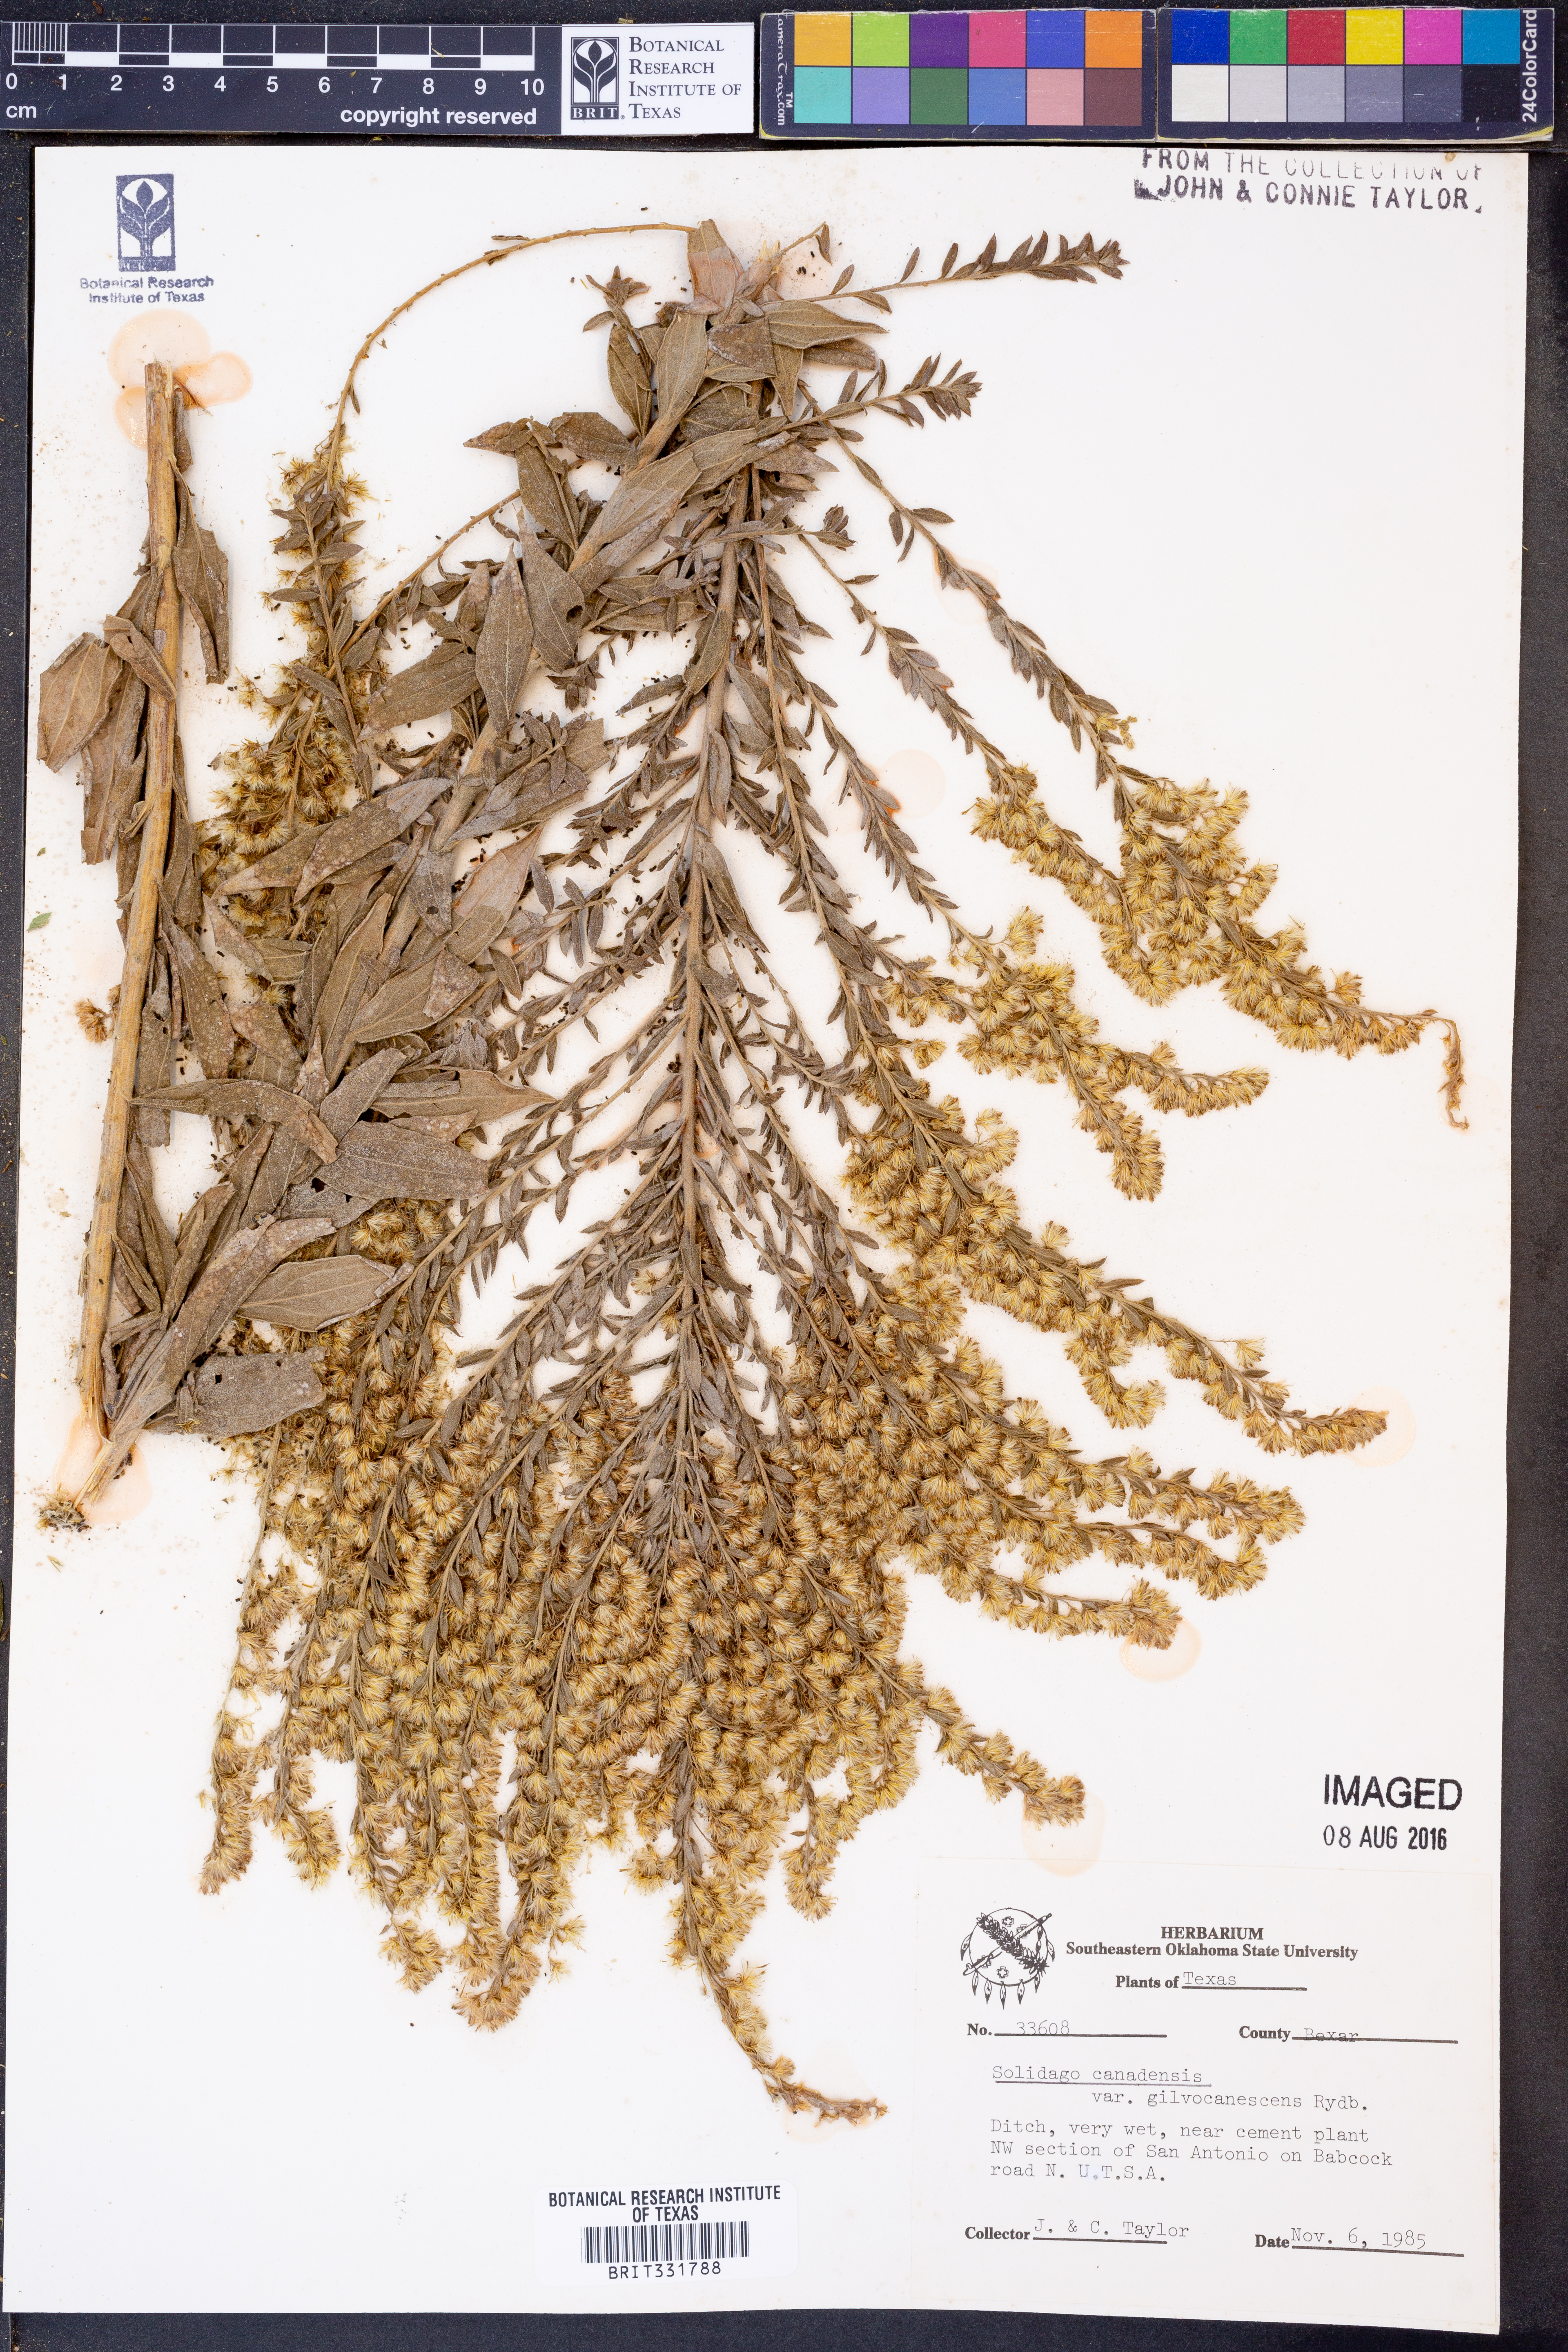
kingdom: Plantae
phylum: Tracheophyta
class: Magnoliopsida
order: Asterales
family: Asteraceae
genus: Solidago
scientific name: Solidago altissima
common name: Late goldenrod
